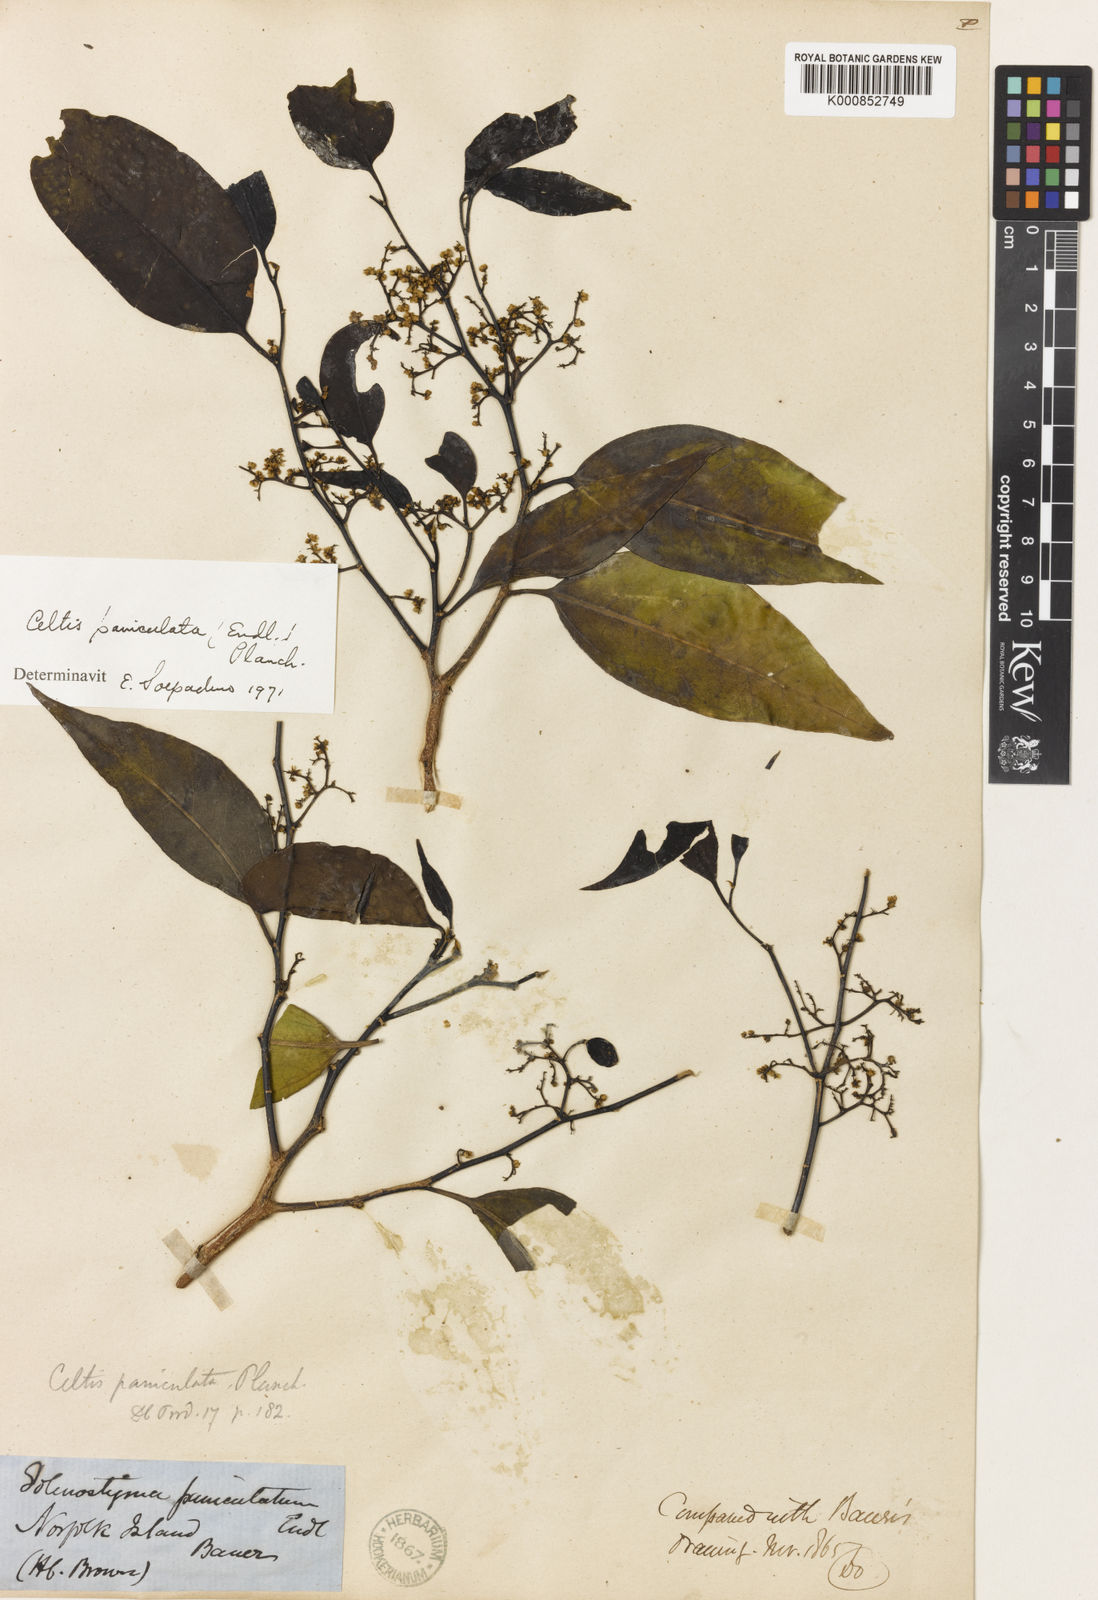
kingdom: Plantae
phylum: Tracheophyta
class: Magnoliopsida
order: Rosales
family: Cannabaceae
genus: Celtis
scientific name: Celtis paniculata
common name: Silky celtis
